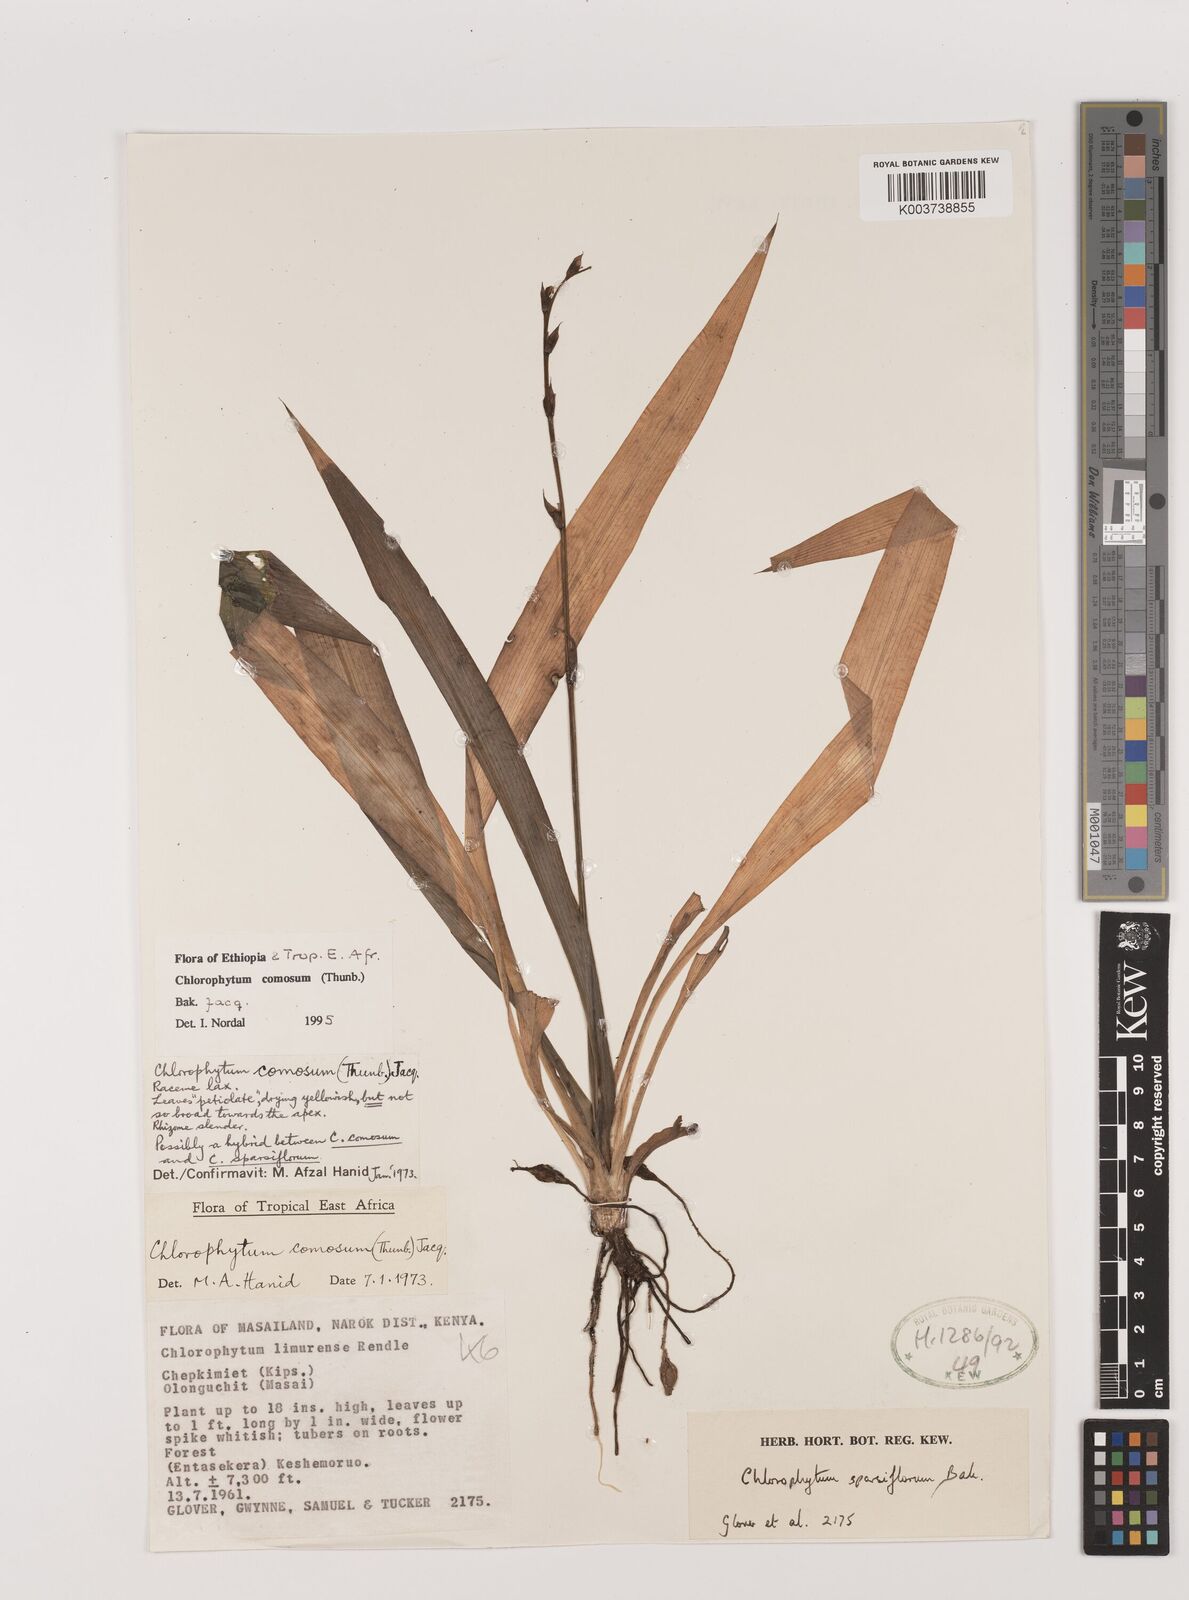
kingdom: Plantae
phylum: Tracheophyta
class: Liliopsida
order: Asparagales
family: Asparagaceae
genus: Chlorophytum
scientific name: Chlorophytum comosum
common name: Spider plant
